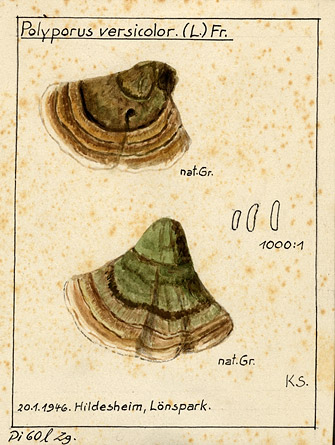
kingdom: Fungi
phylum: Basidiomycota
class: Agaricomycetes
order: Polyporales
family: Polyporaceae
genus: Trametes
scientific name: Trametes versicolor
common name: Turkeytail
